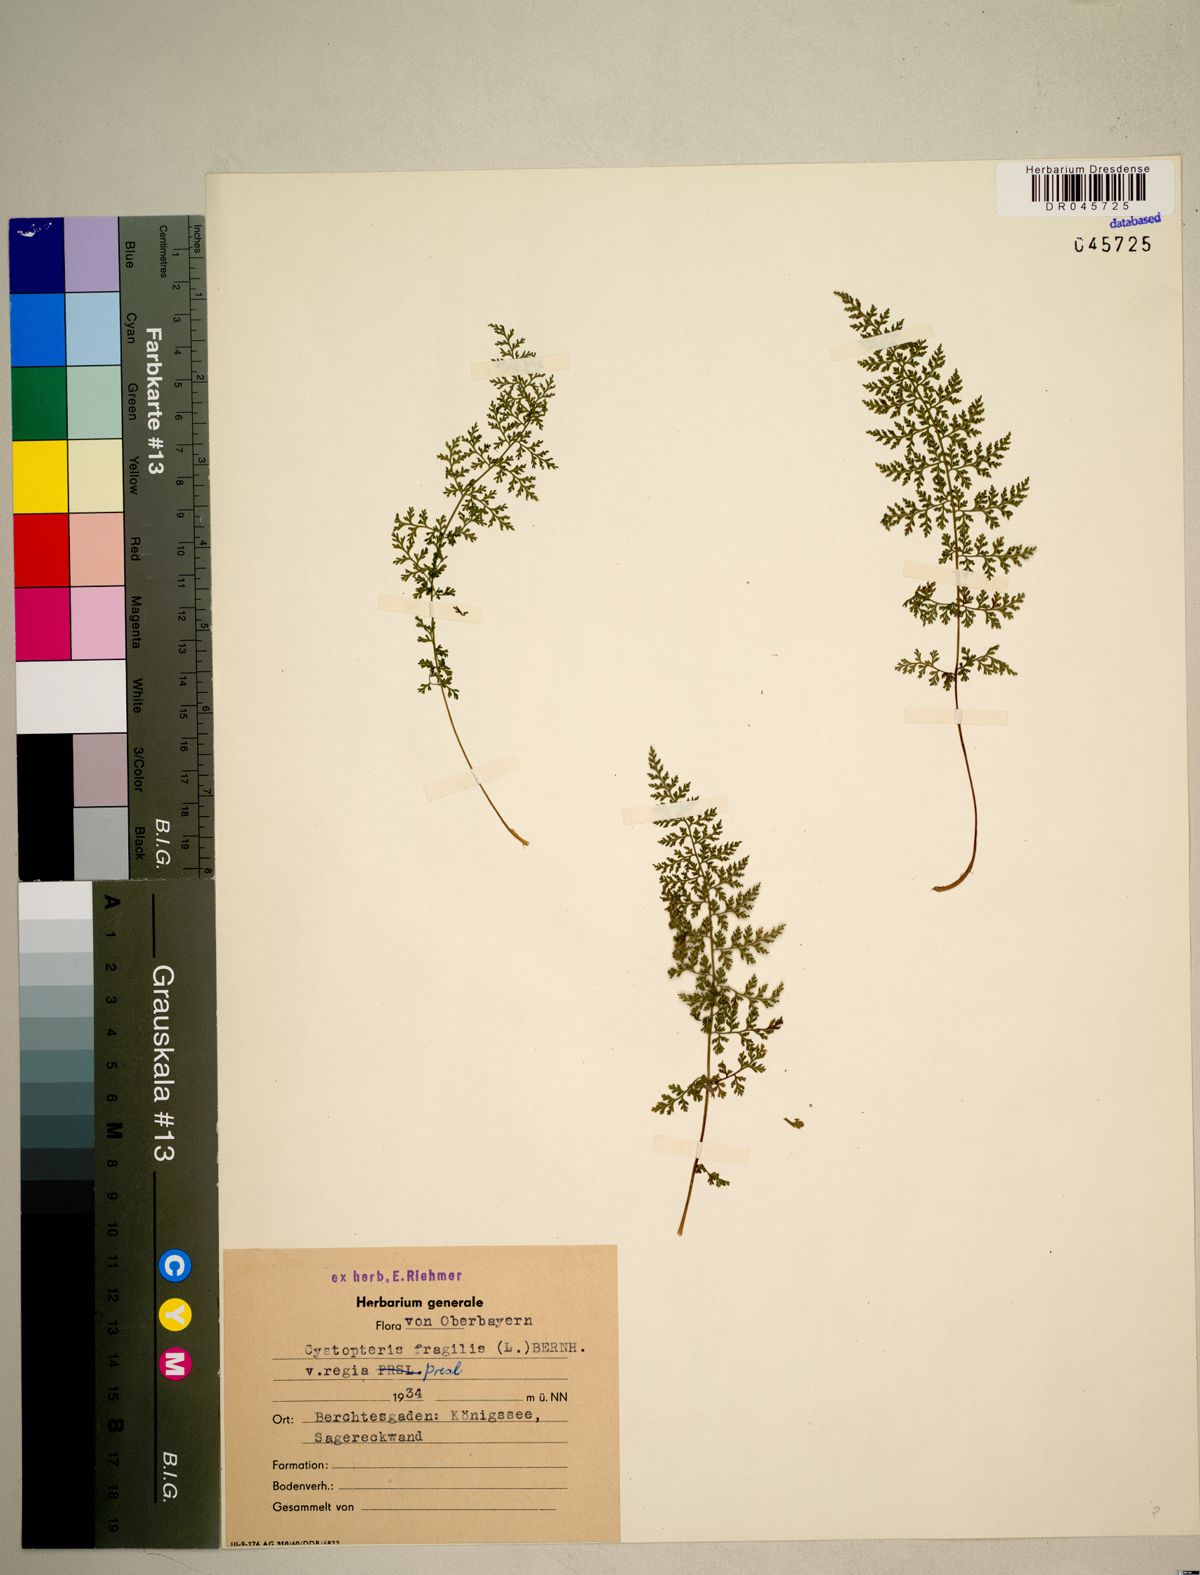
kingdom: Plantae
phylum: Tracheophyta
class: Polypodiopsida
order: Polypodiales
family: Cystopteridaceae
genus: Cystopteris
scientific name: Cystopteris fragilis
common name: Brittle bladder fern
